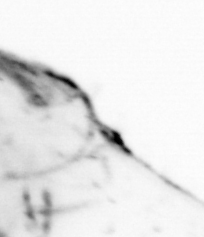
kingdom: Animalia
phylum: Chaetognatha
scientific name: Chaetognatha
